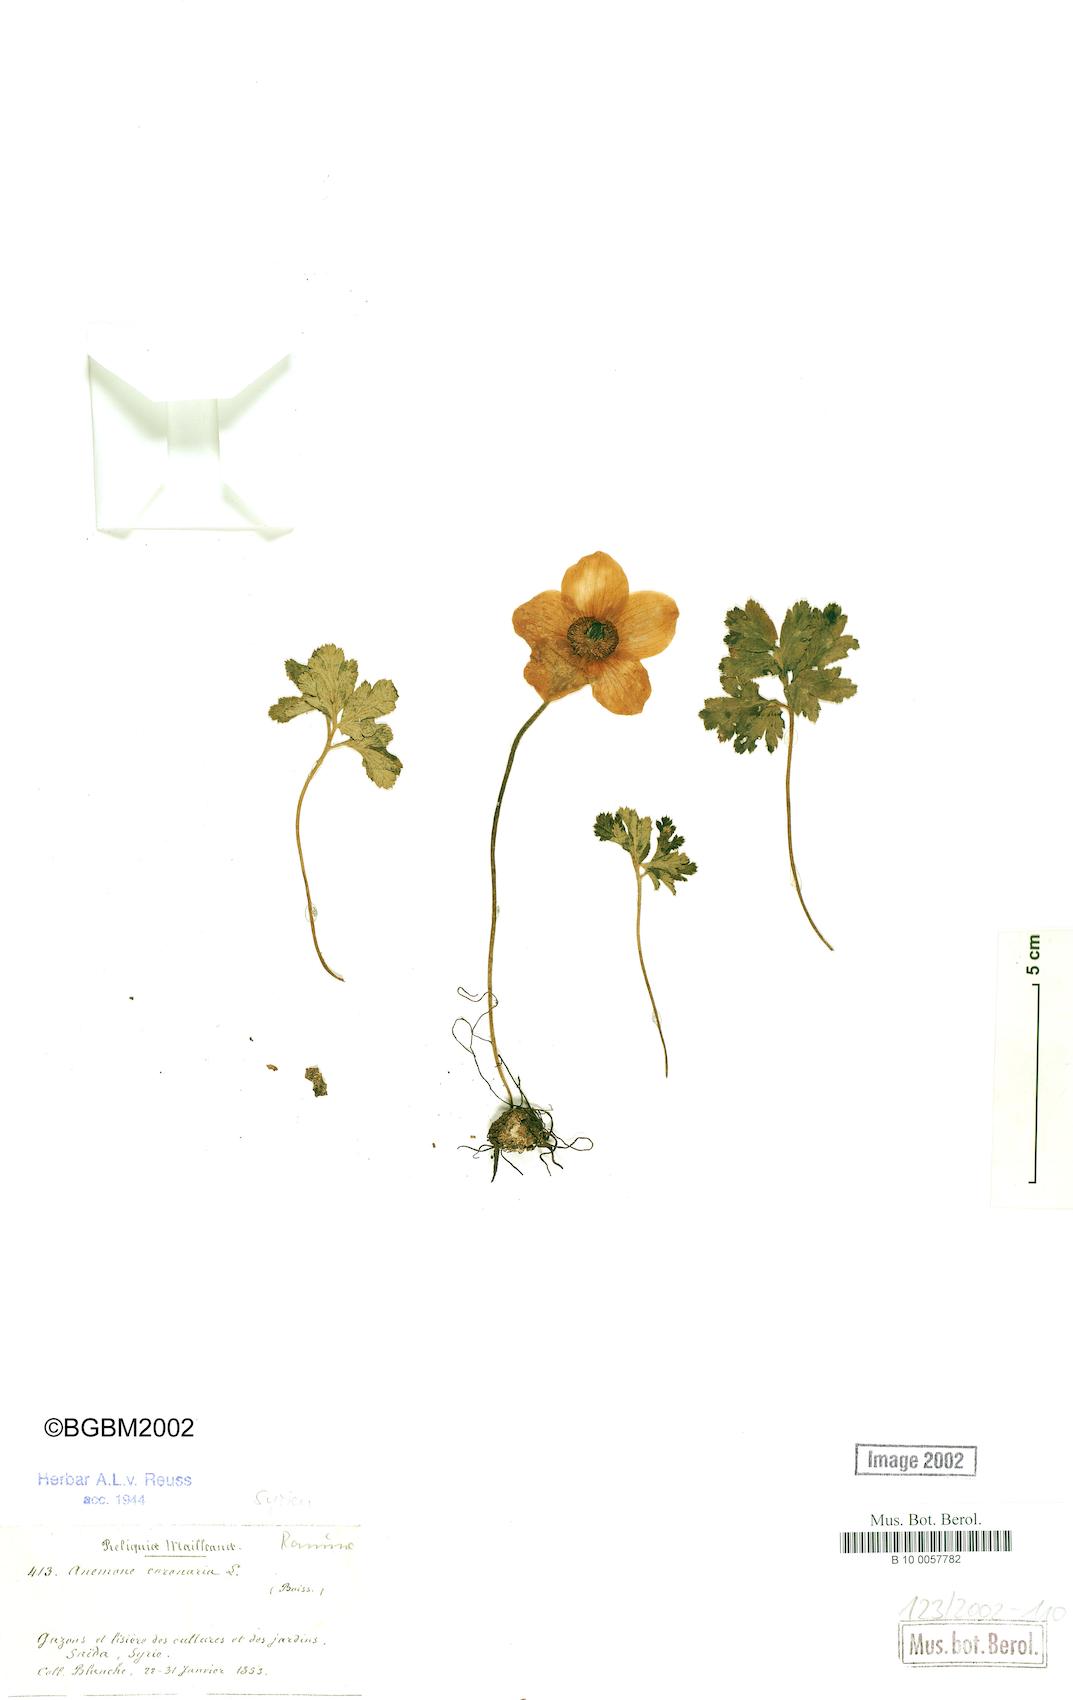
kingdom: Plantae
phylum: Tracheophyta
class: Magnoliopsida
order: Ranunculales
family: Ranunculaceae
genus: Anemone
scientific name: Anemone coronaria
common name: Poppy anemone
